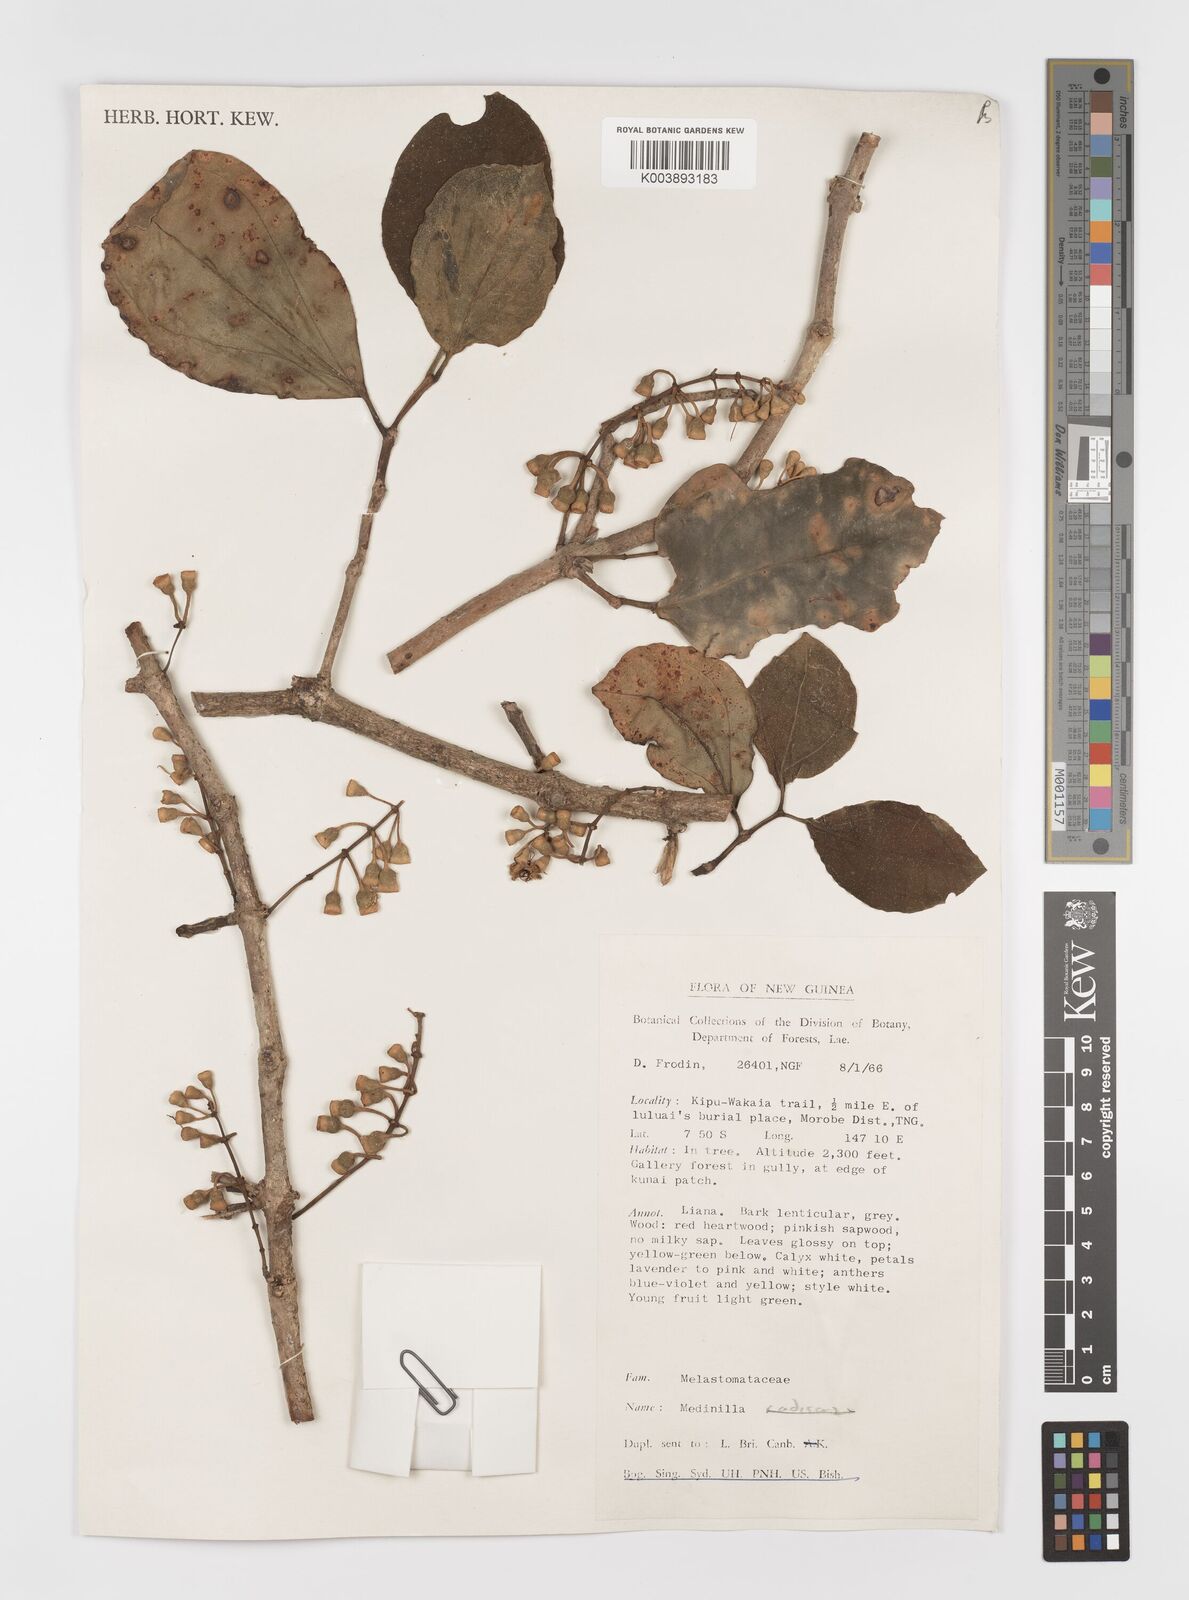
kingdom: Plantae
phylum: Tracheophyta
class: Magnoliopsida
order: Myrtales
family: Melastomataceae
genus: Medinilla
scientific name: Medinilla
